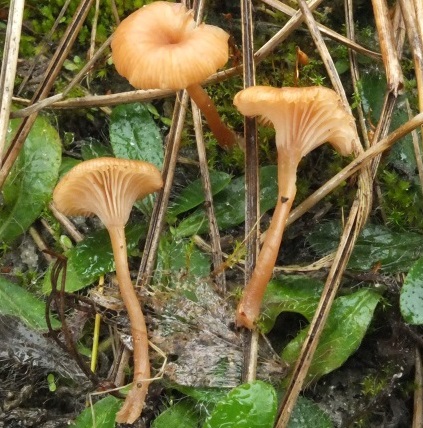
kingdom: Fungi
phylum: Basidiomycota
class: Agaricomycetes
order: Agaricales
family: Tricholomataceae
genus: Omphalina
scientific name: Omphalina pyxidata
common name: rødbrun navlehat
